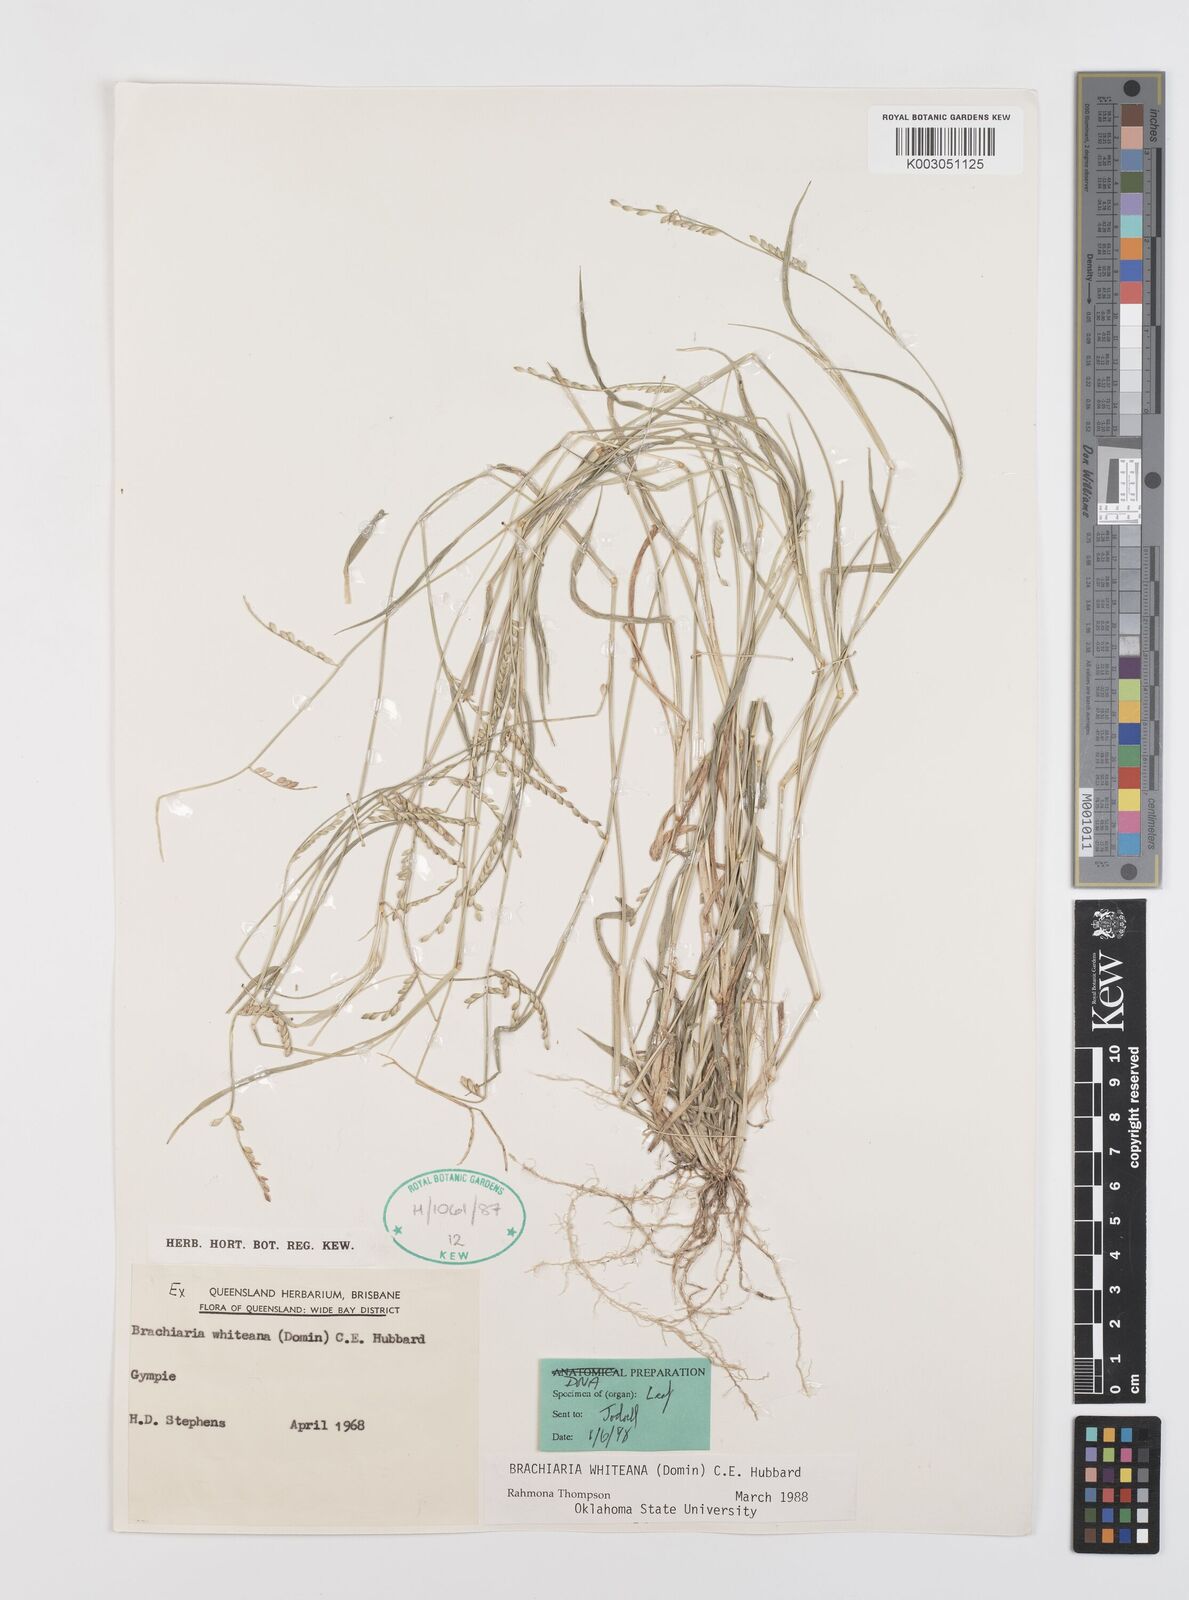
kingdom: Plantae
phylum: Tracheophyta
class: Liliopsida
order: Poales
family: Poaceae
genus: Urochloa
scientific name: Urochloa whiteana
